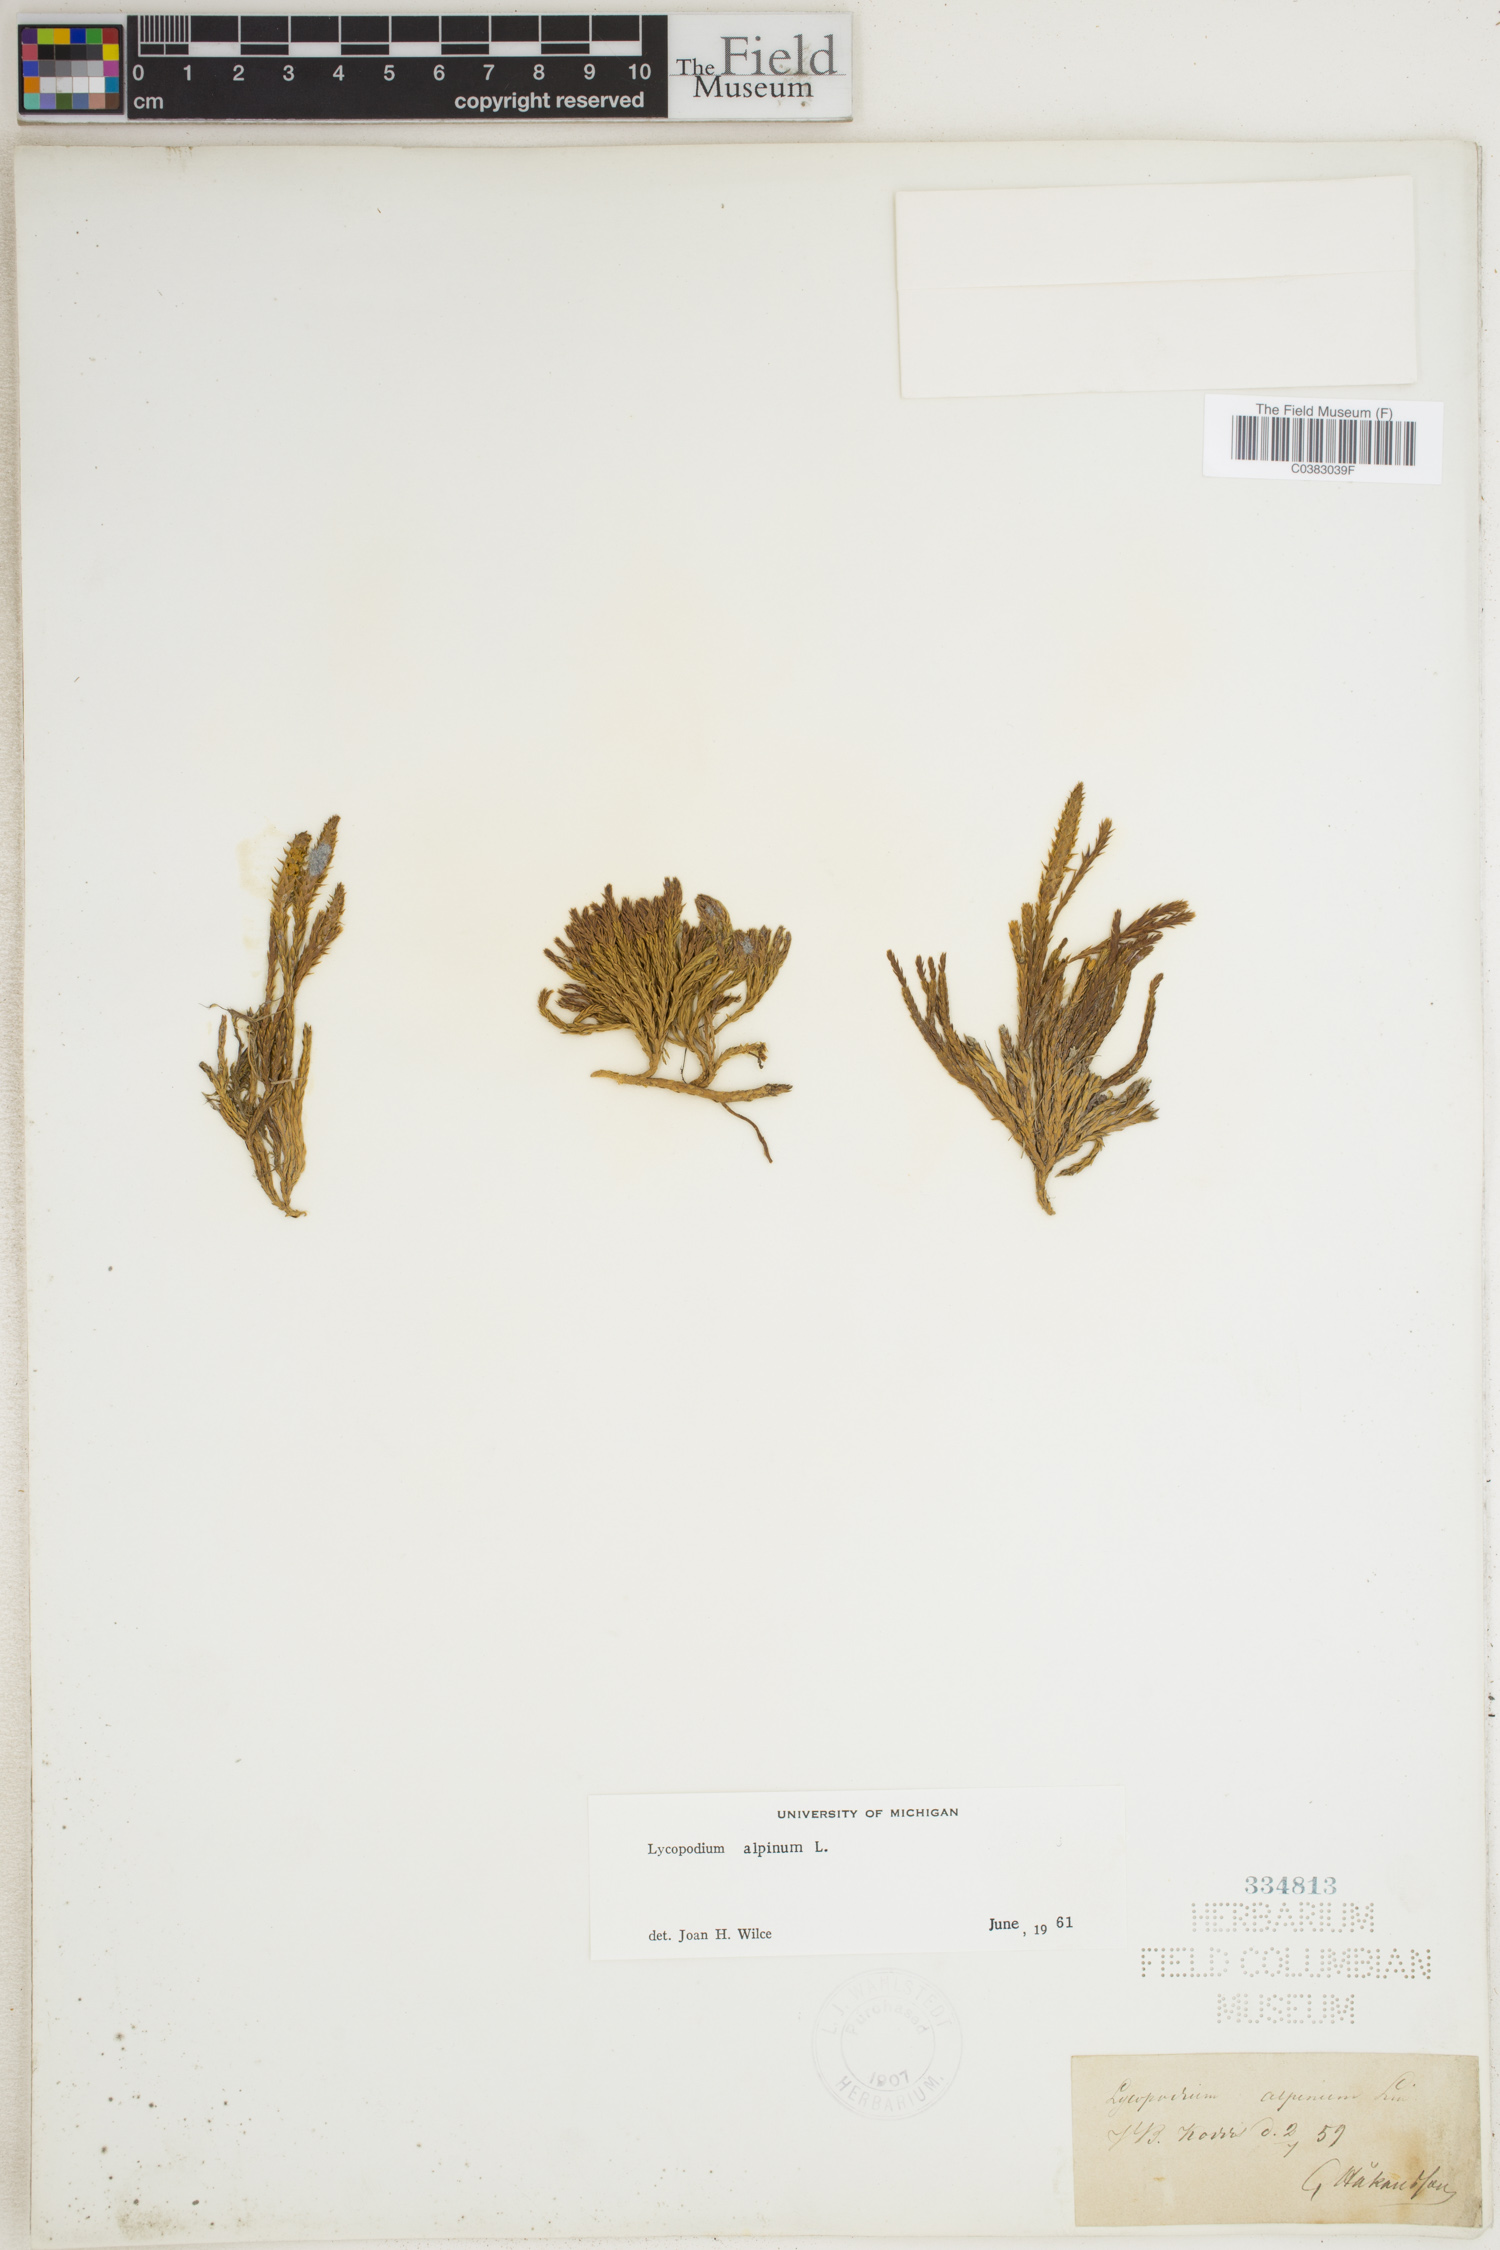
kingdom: Plantae
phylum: Tracheophyta
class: Lycopodiopsida
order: Lycopodiales
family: Lycopodiaceae
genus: Diphasiastrum
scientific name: Diphasiastrum alpinum
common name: Alpine clubmoss
